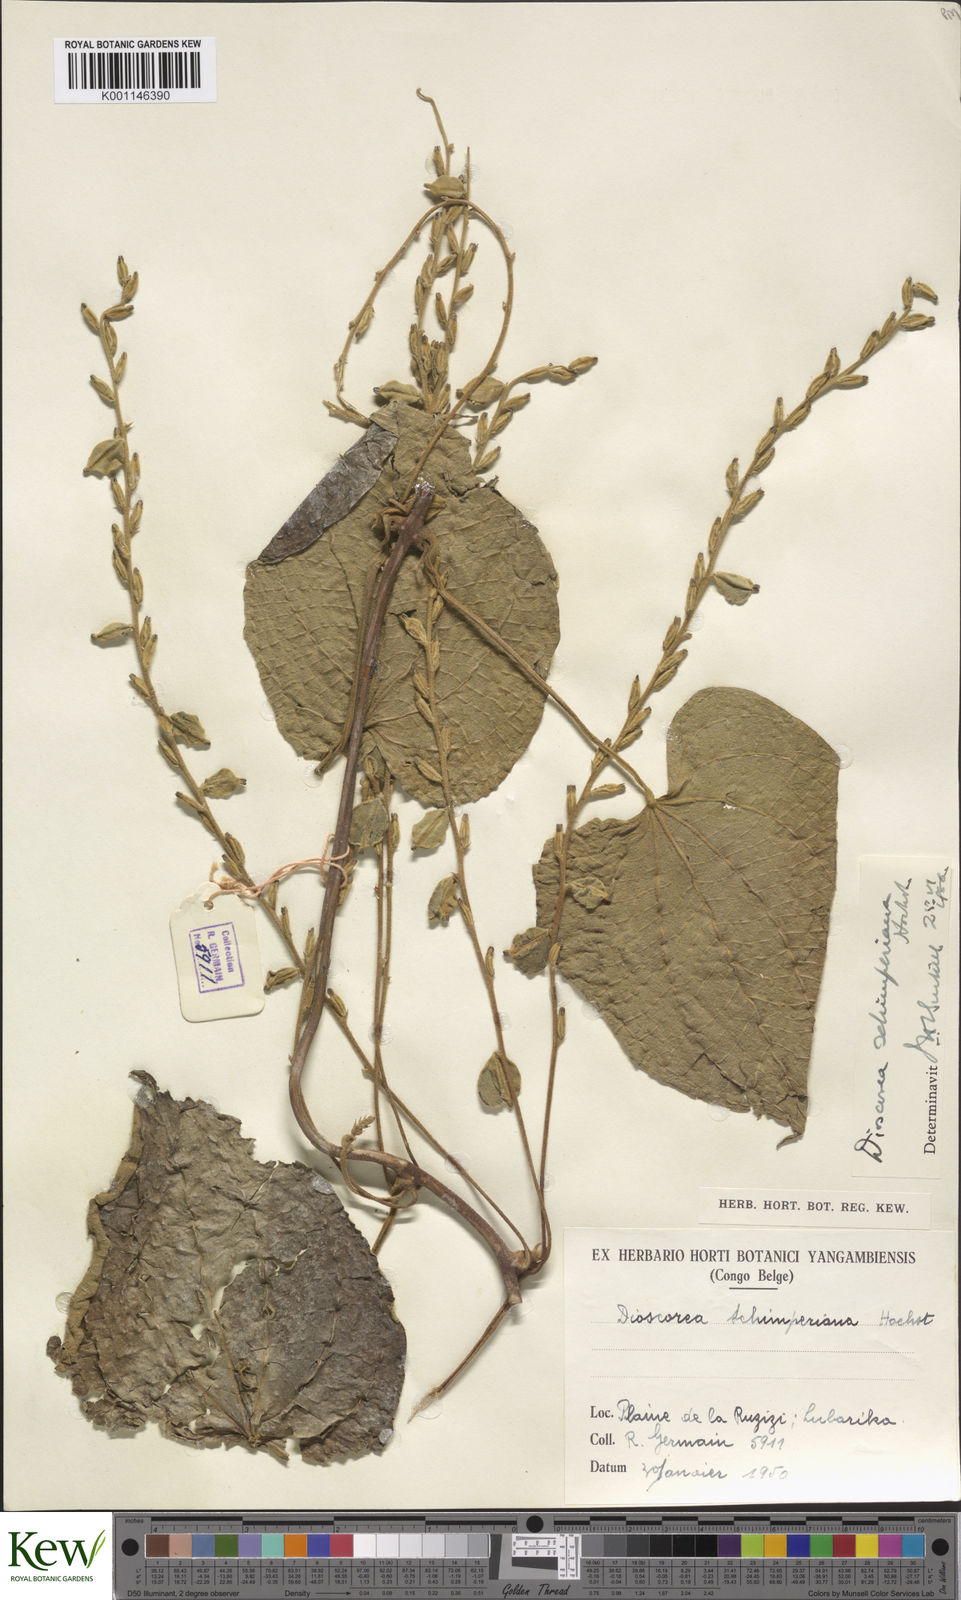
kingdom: Plantae
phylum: Tracheophyta
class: Liliopsida
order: Dioscoreales
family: Dioscoreaceae
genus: Dioscorea
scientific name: Dioscorea schimperiana
